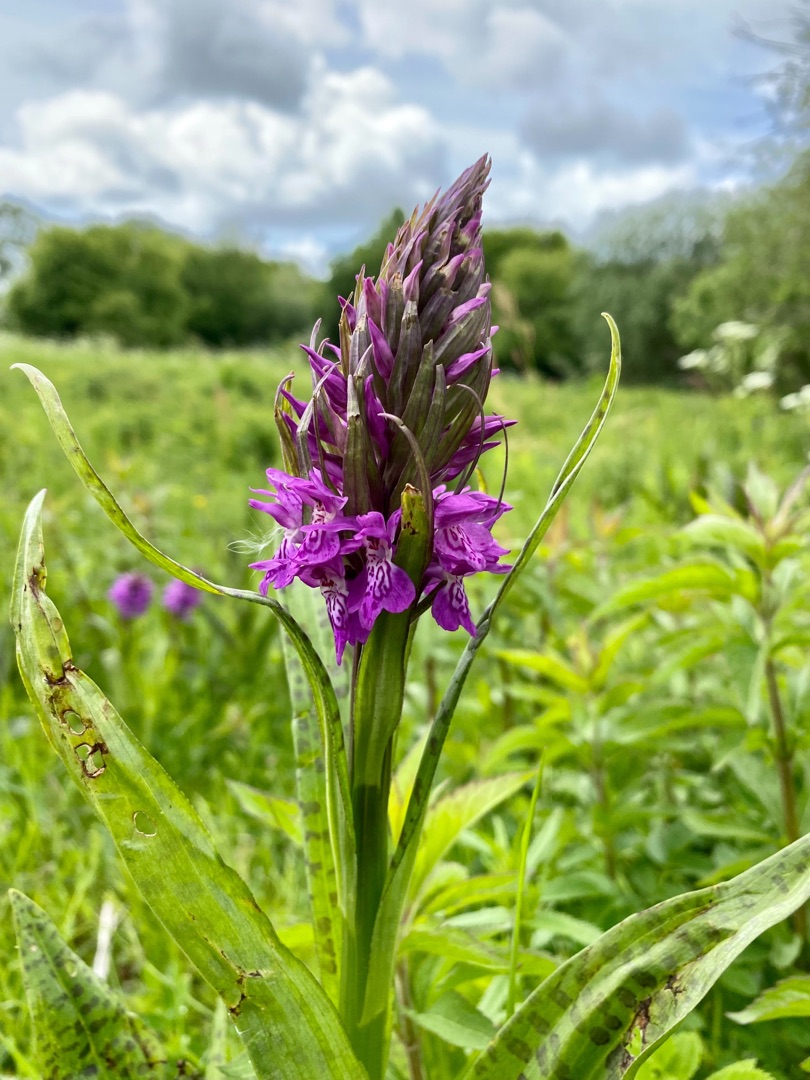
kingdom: Plantae
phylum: Tracheophyta
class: Liliopsida
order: Asparagales
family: Orchidaceae
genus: Dactylorhiza
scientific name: Dactylorhiza majalis
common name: Maj-gøgeurt
